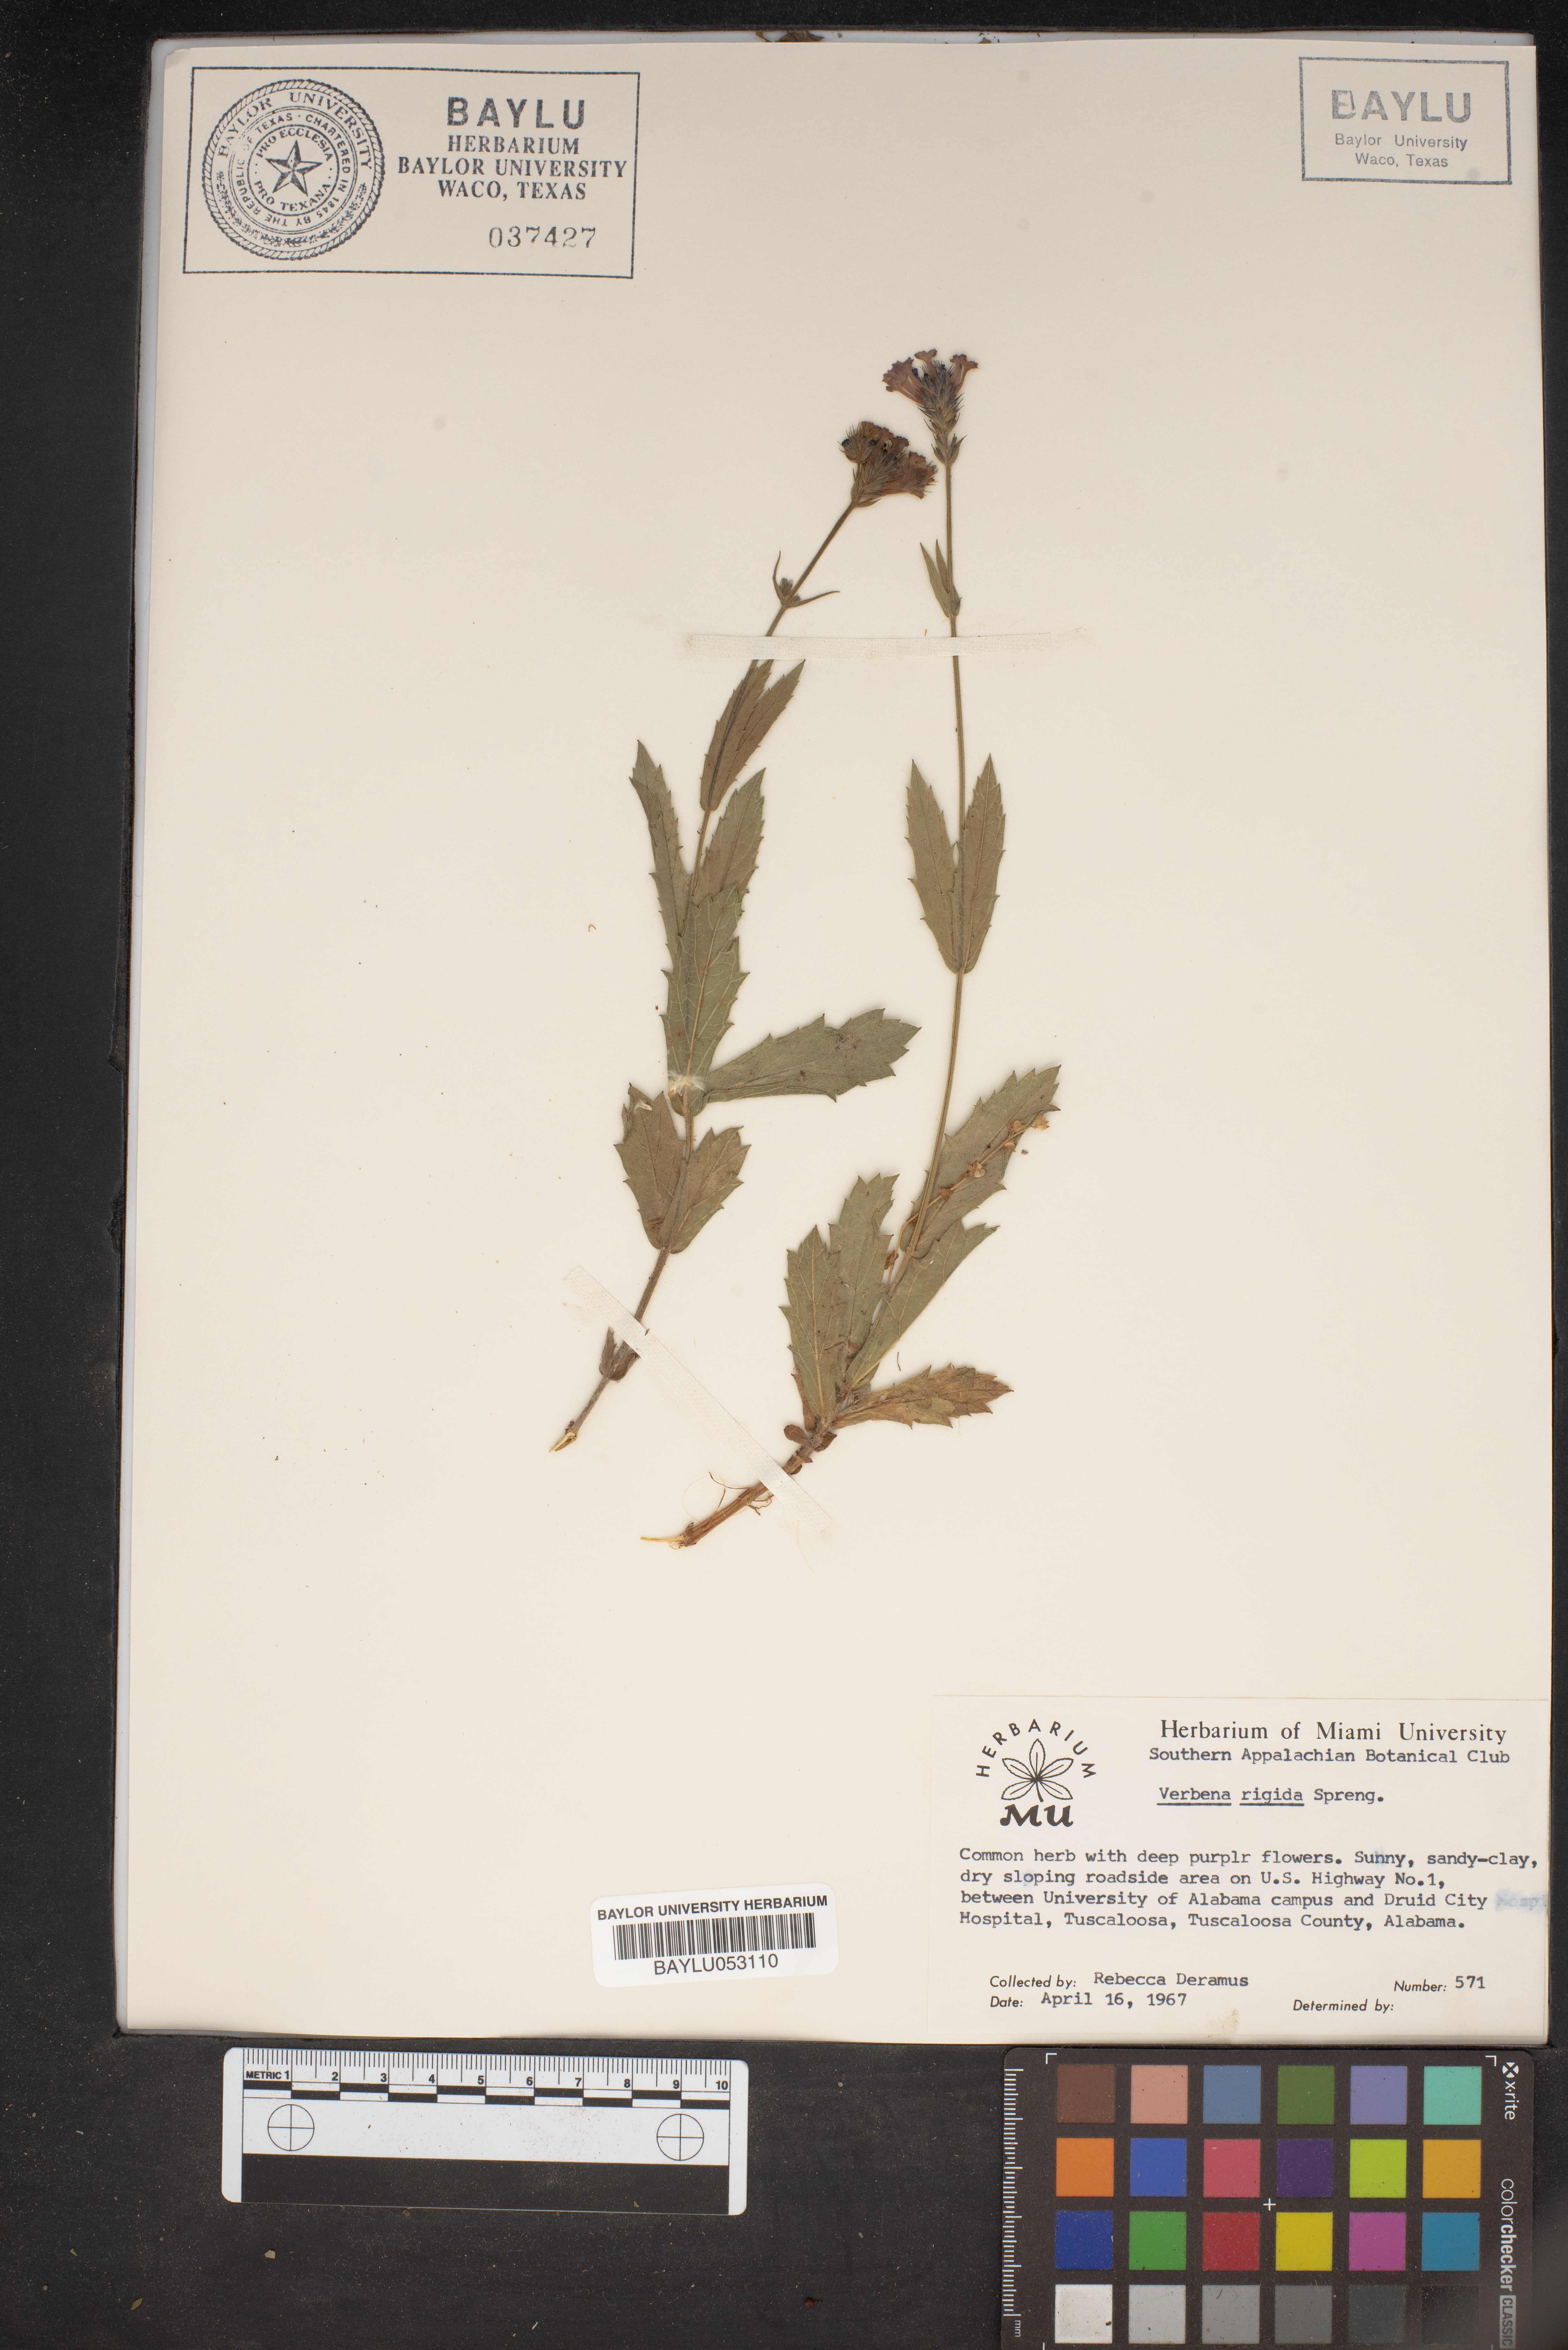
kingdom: Plantae
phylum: Tracheophyta
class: Magnoliopsida
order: Lamiales
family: Verbenaceae
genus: Verbena
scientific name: Verbena rigida
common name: Slender vervain
